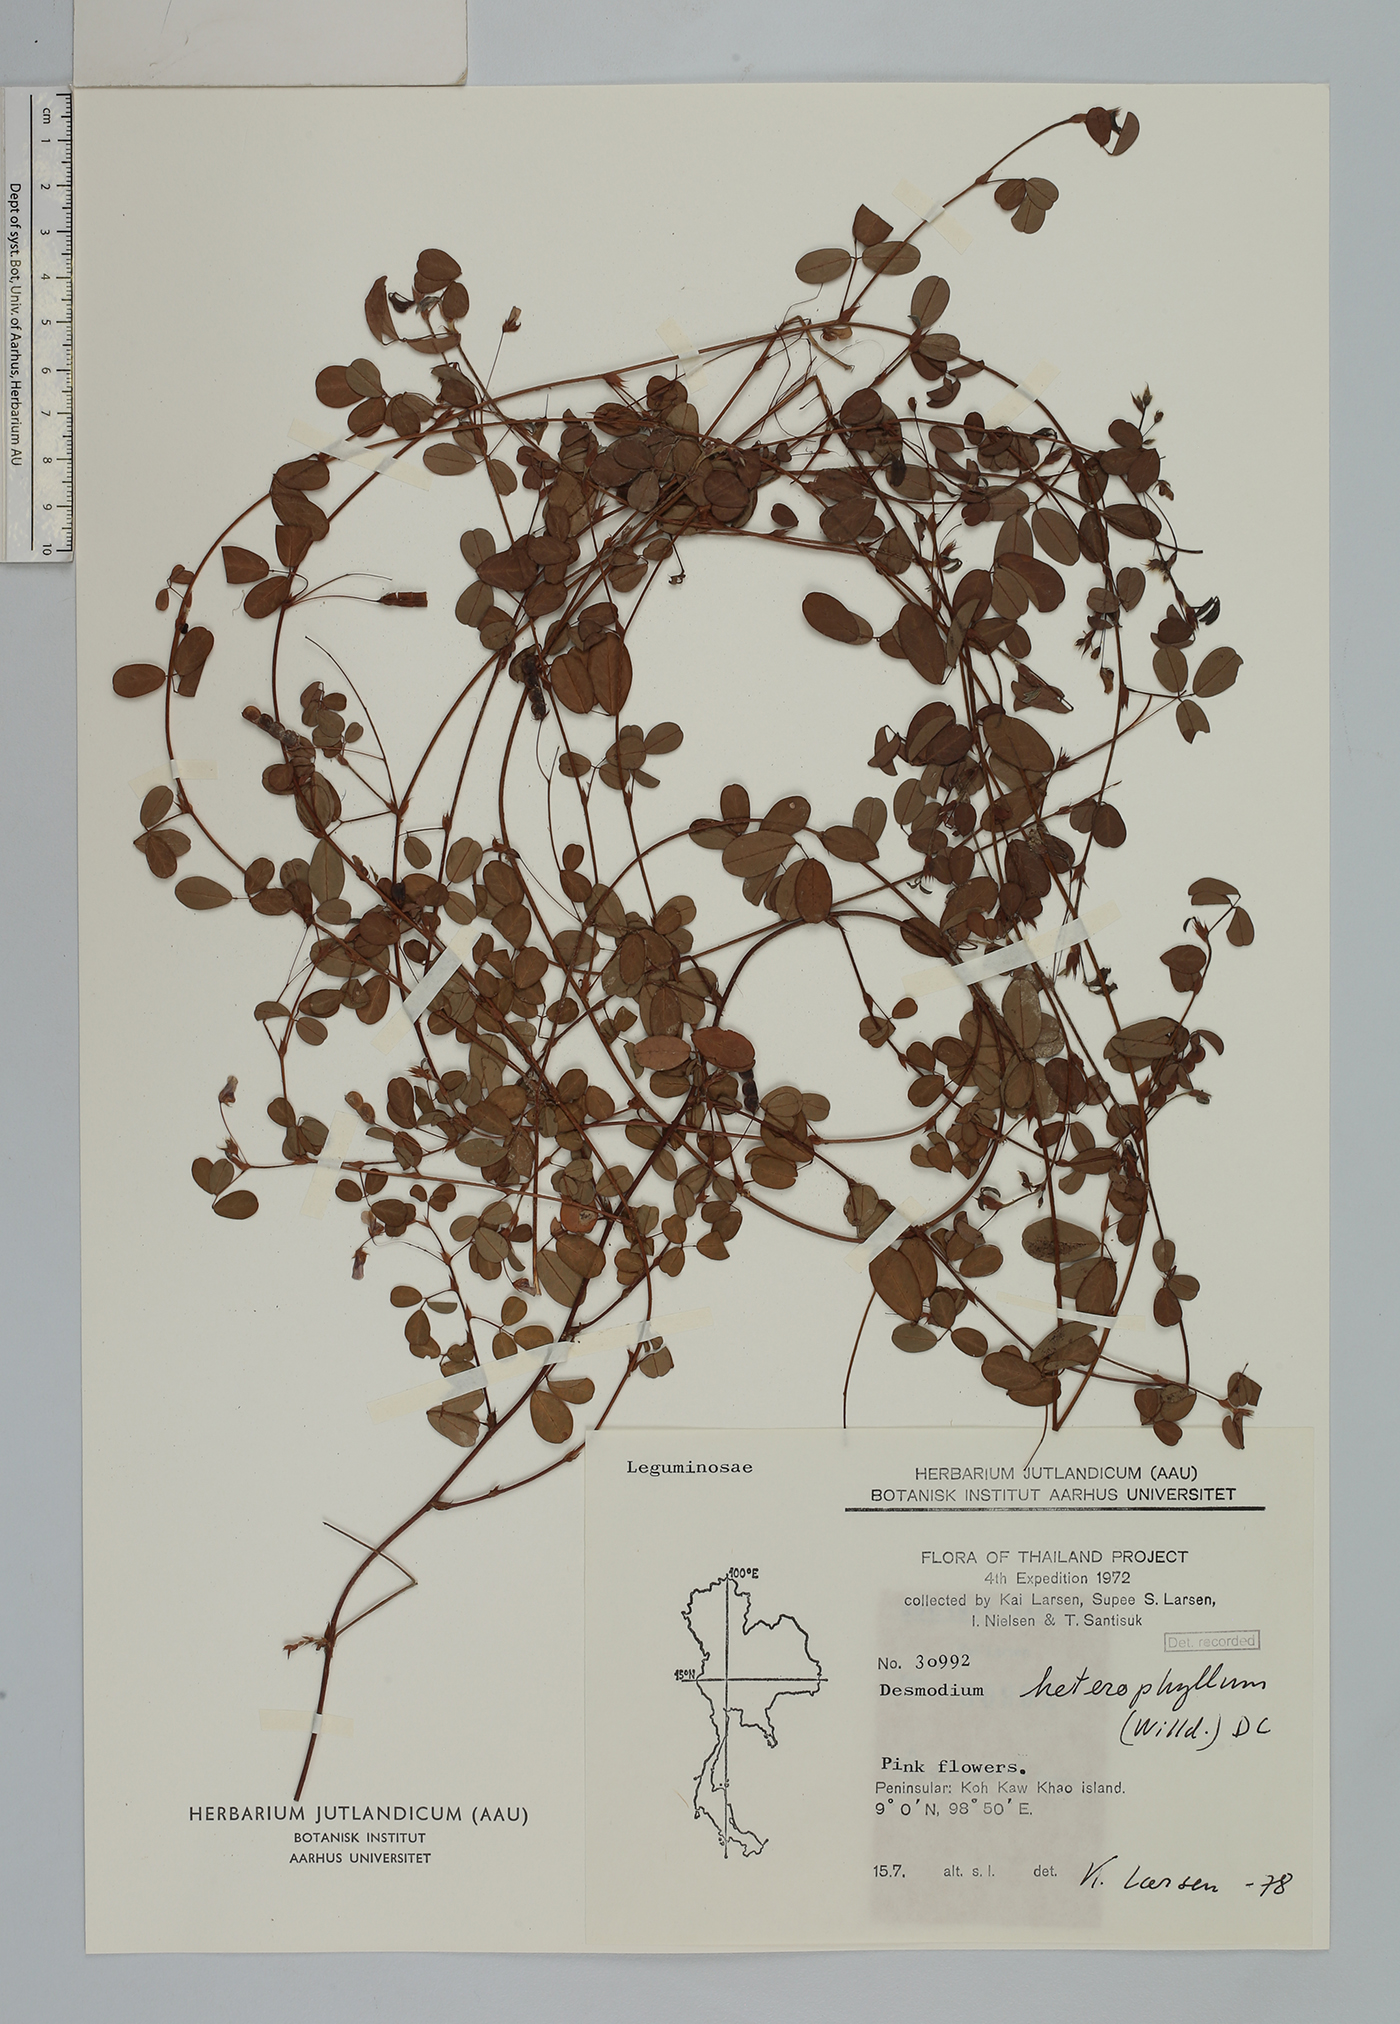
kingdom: Plantae
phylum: Tracheophyta
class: Magnoliopsida
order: Fabales
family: Fabaceae
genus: Grona
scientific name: Grona heterophylla
